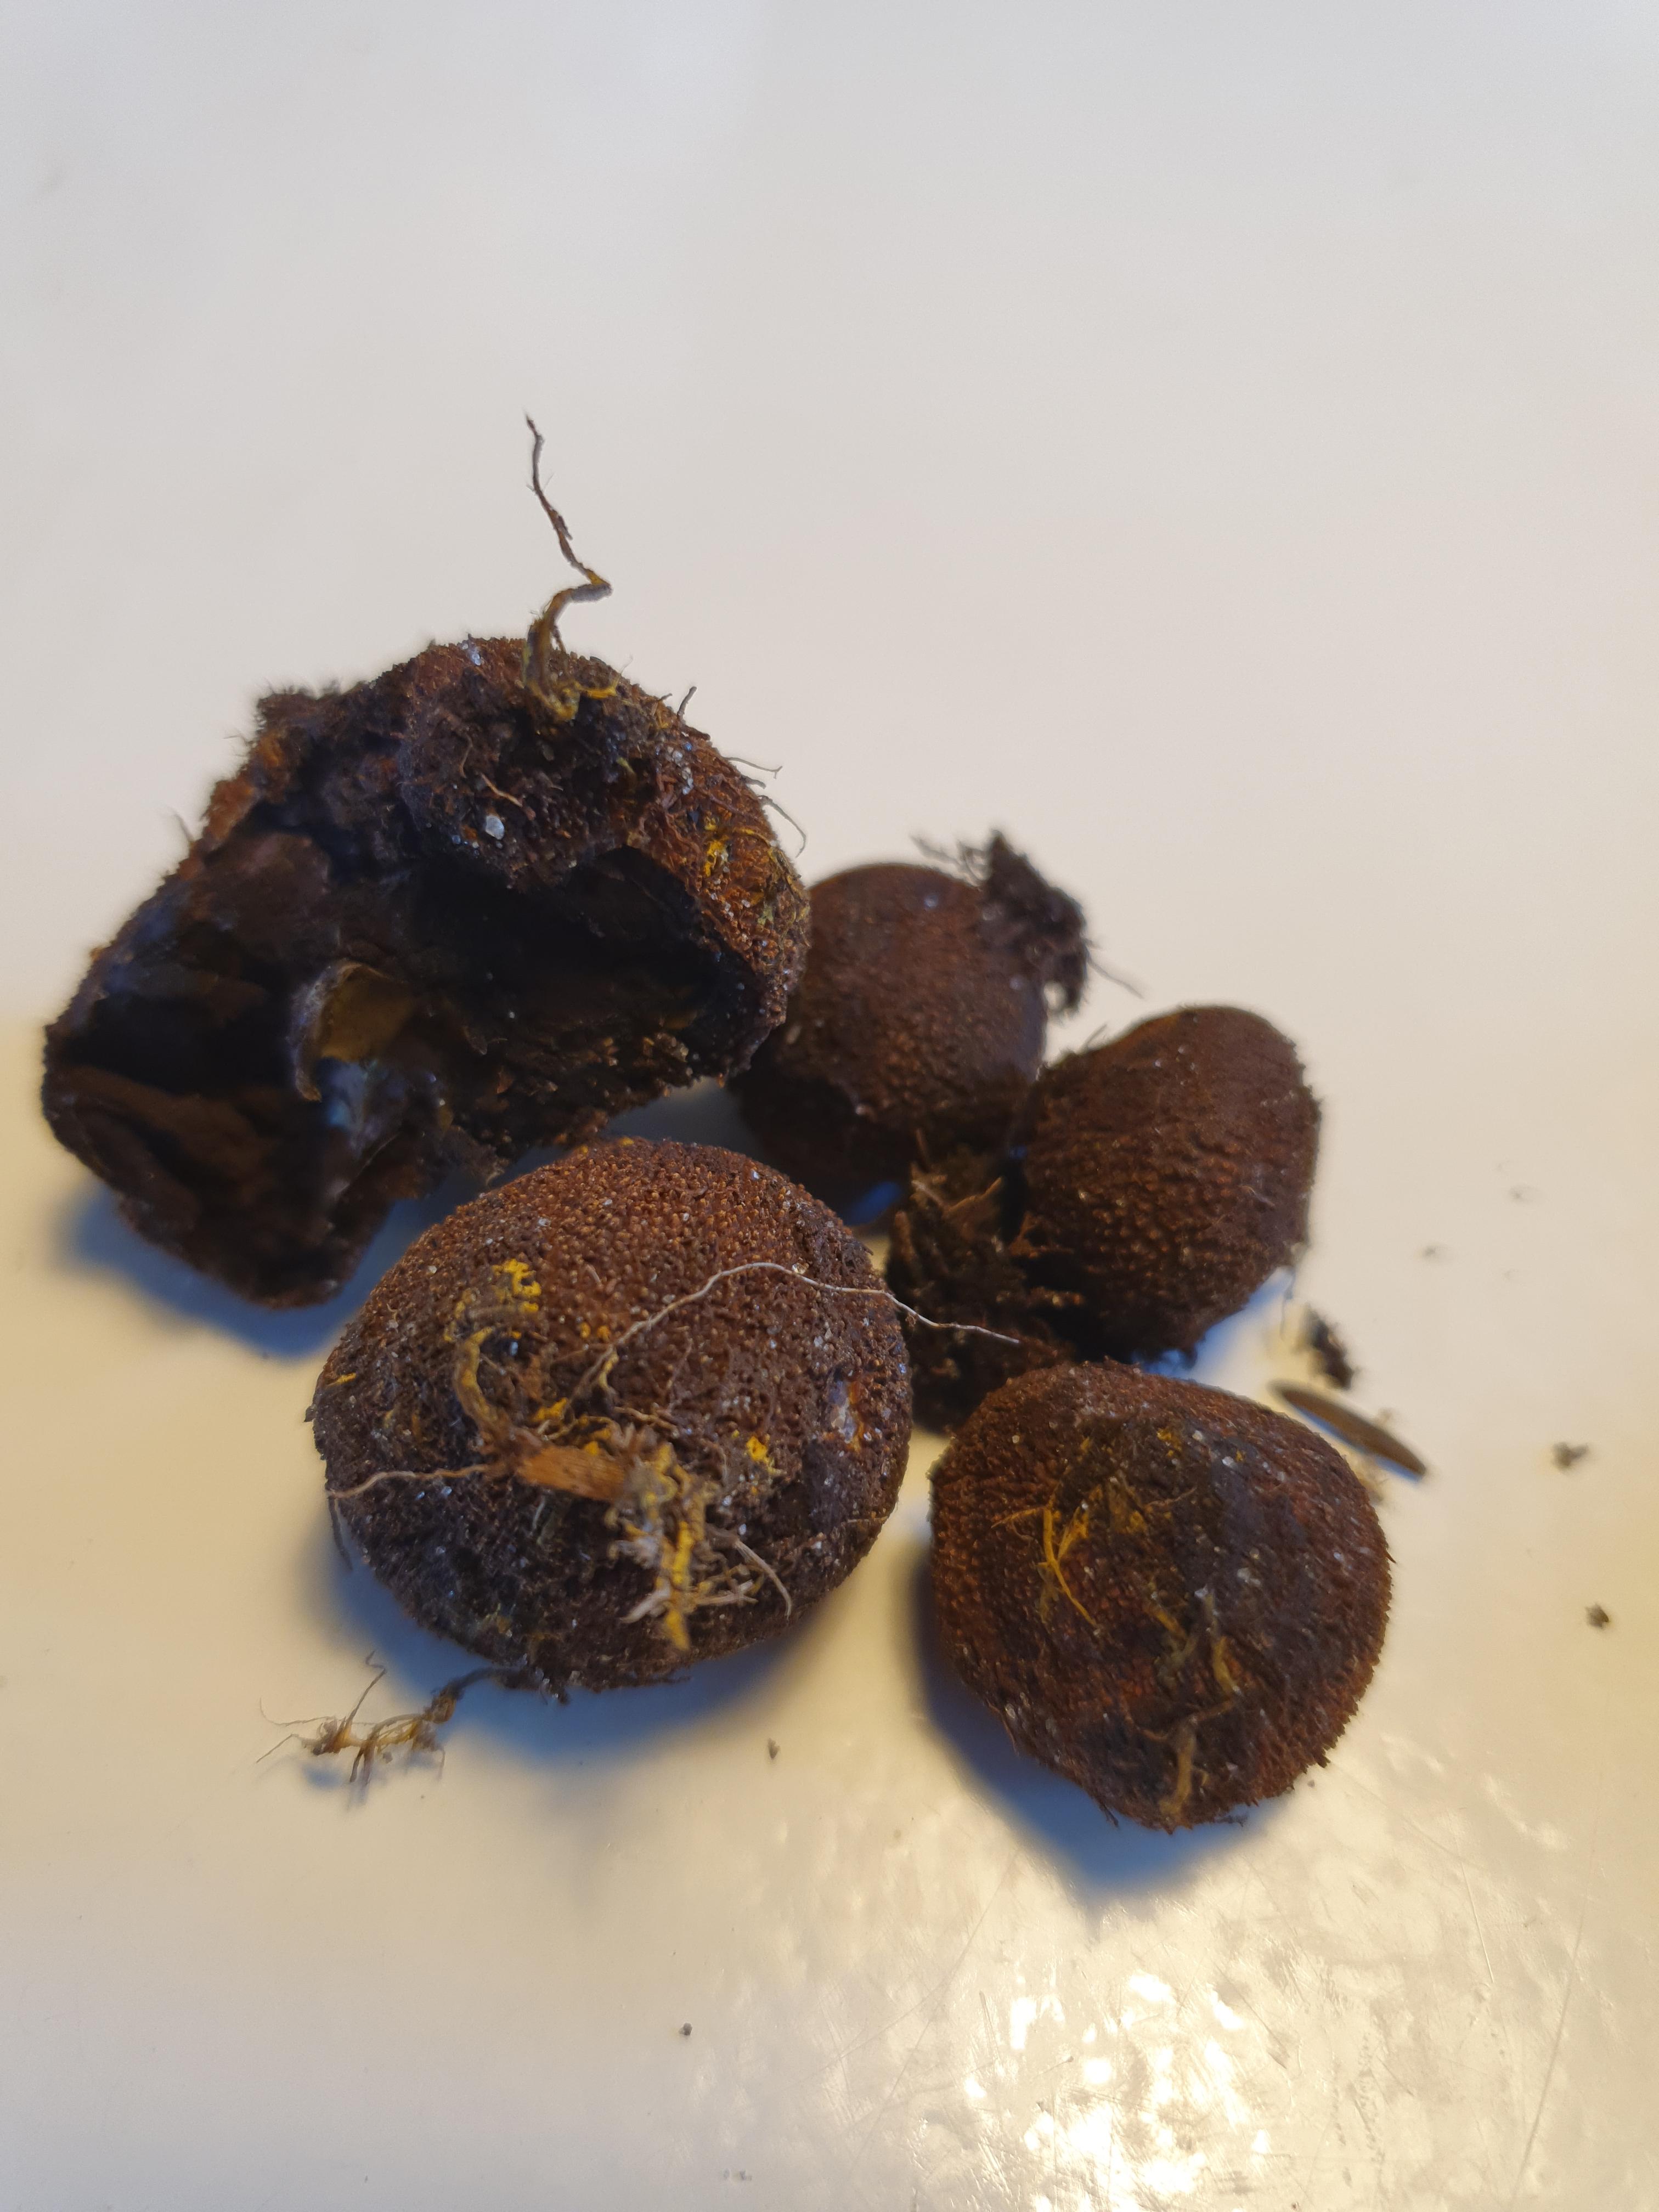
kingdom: Fungi
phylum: Ascomycota
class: Eurotiomycetes
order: Eurotiales
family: Elaphomycetaceae
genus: Elaphomyces
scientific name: Elaphomyces
